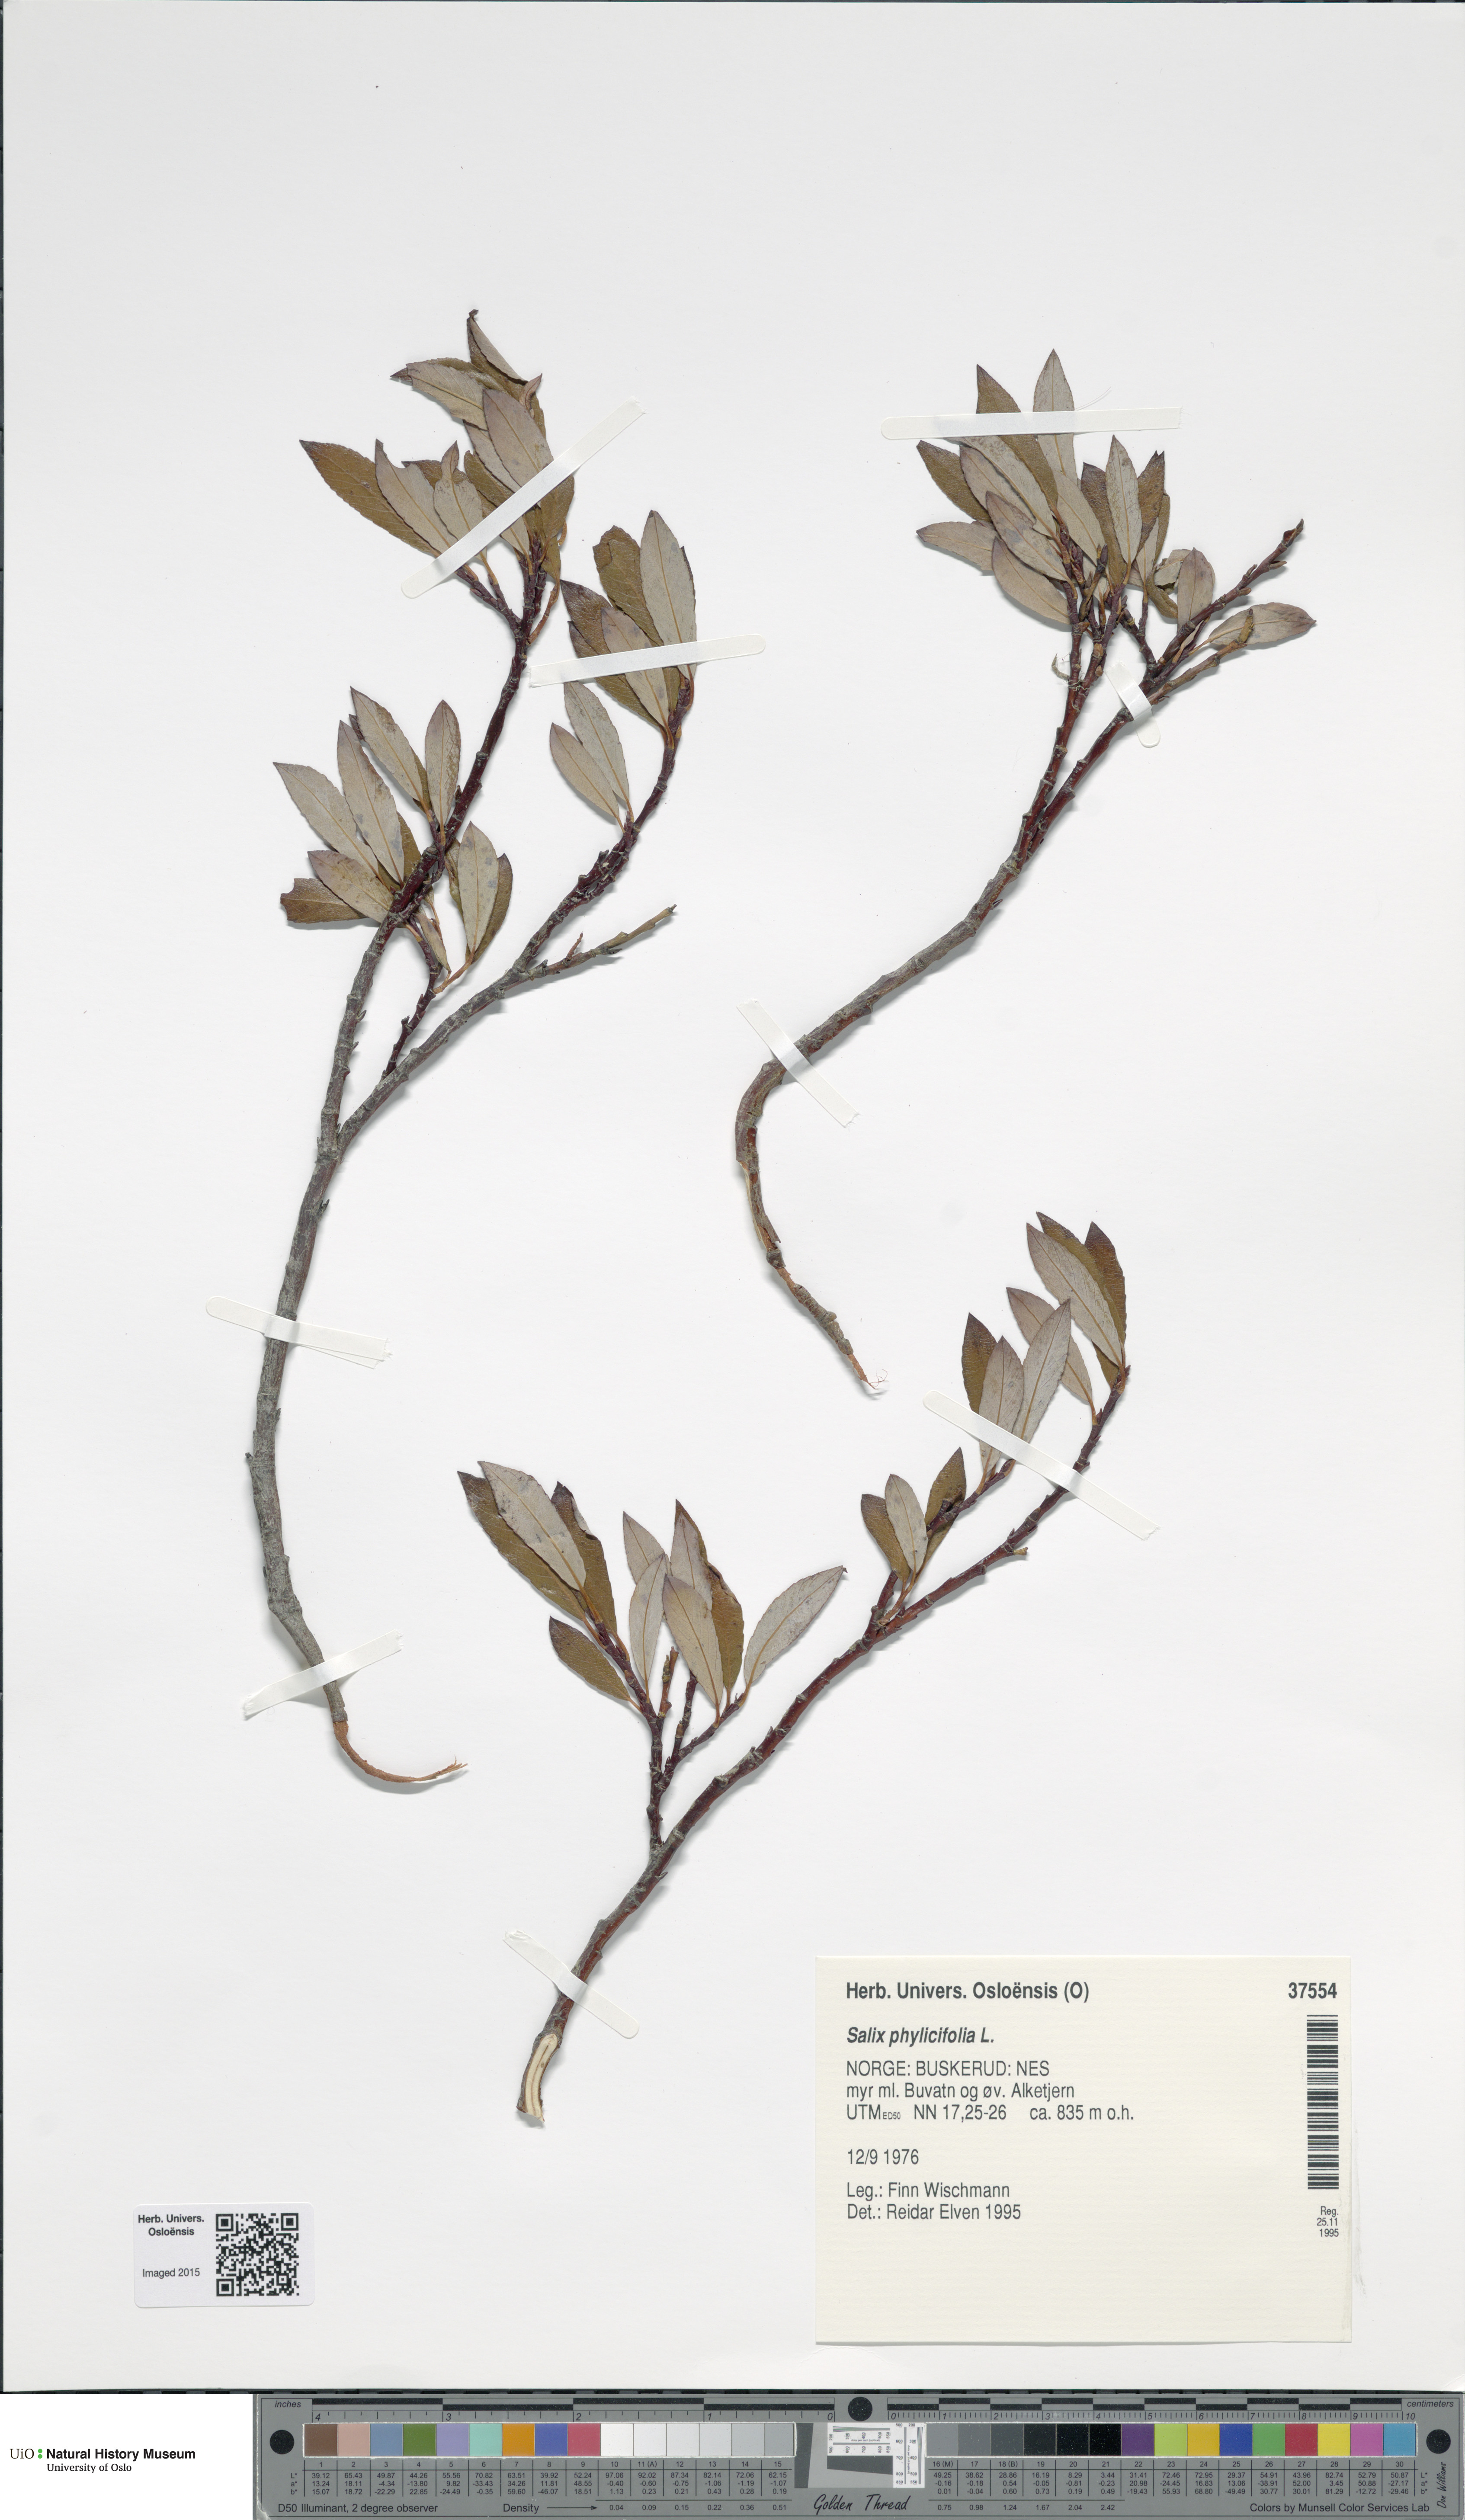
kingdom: Plantae
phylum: Tracheophyta
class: Magnoliopsida
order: Malpighiales
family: Salicaceae
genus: Salix
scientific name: Salix phylicifolia
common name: Tea-leaved willow
